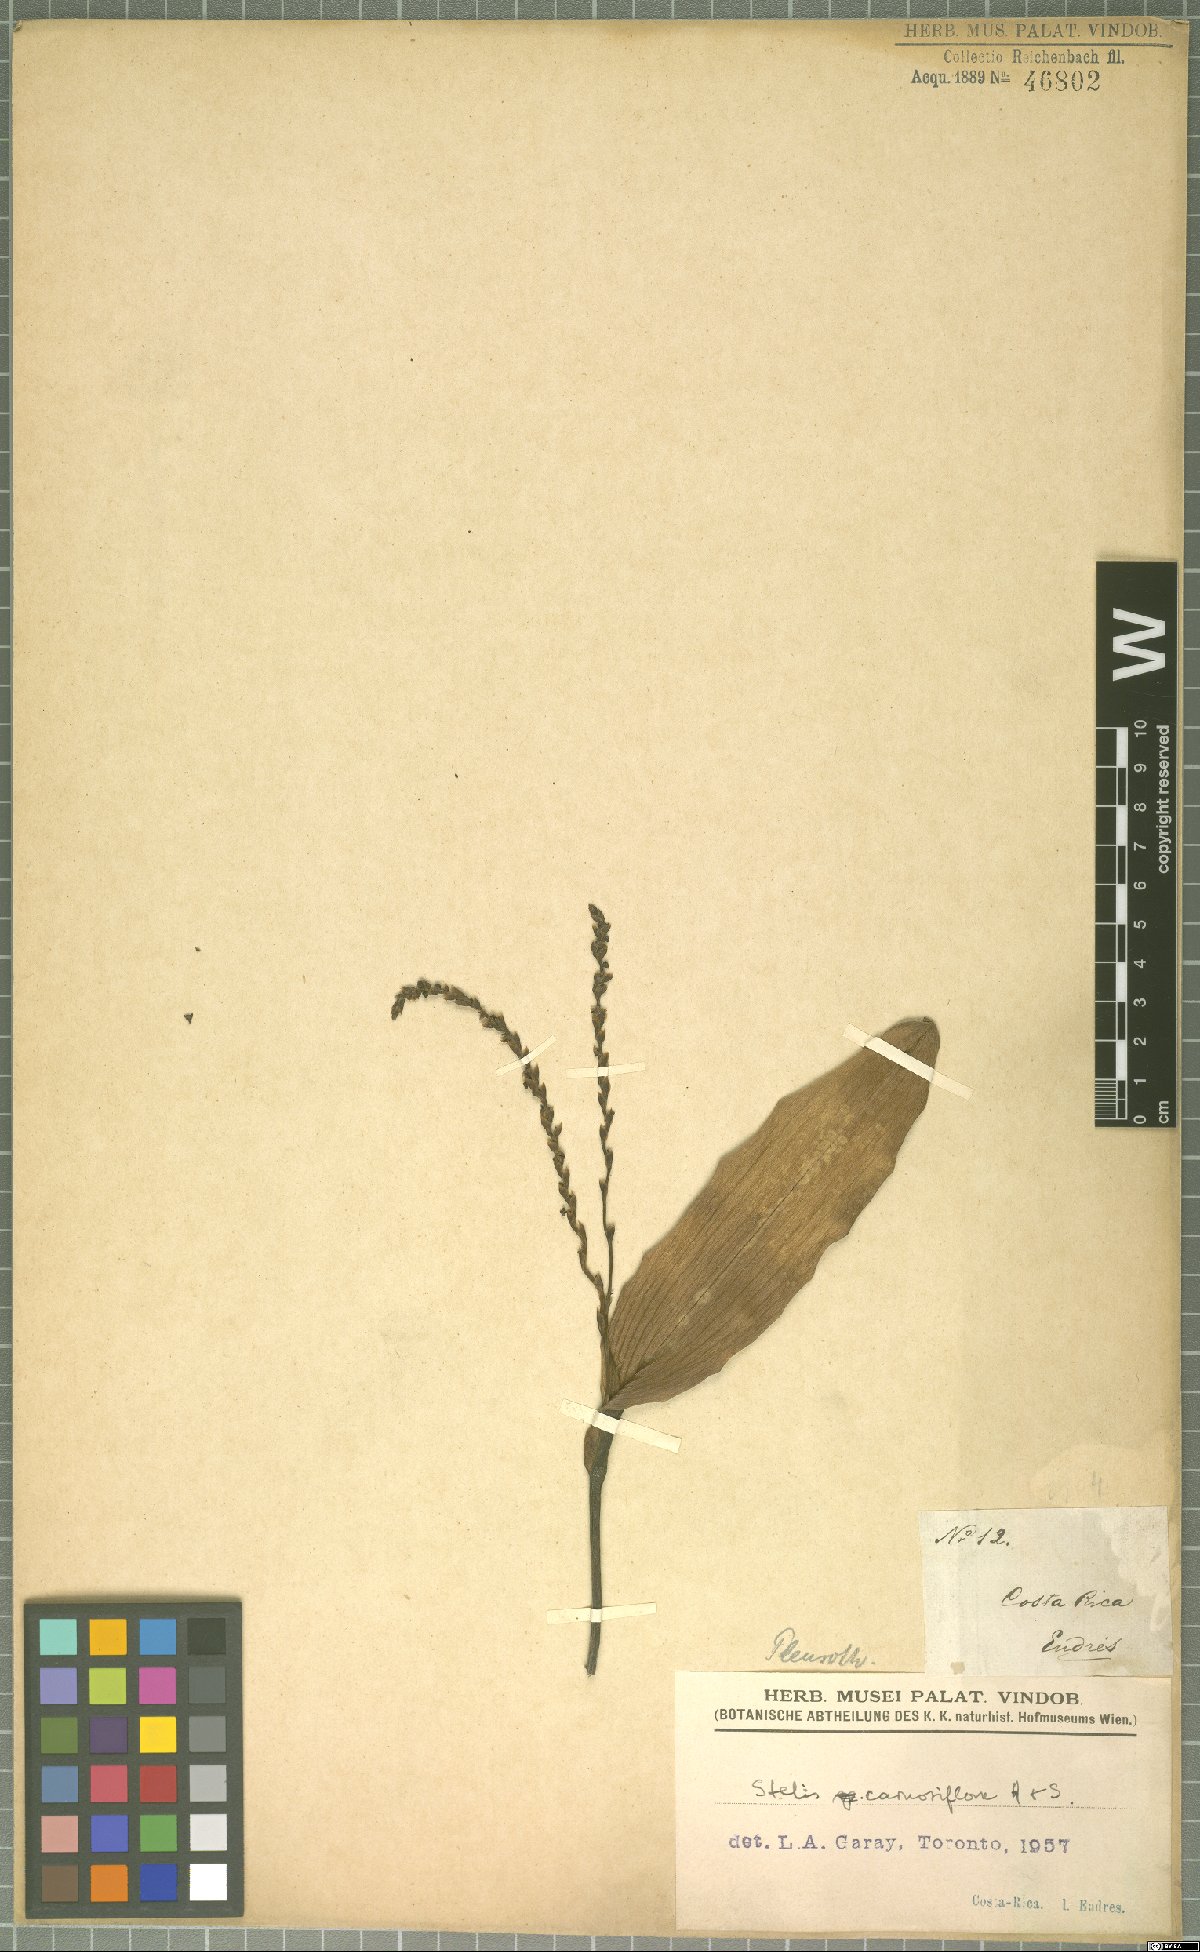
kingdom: Plantae
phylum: Tracheophyta
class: Liliopsida
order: Asparagales
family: Orchidaceae
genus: Stelis
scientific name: Stelis carnosiflora
